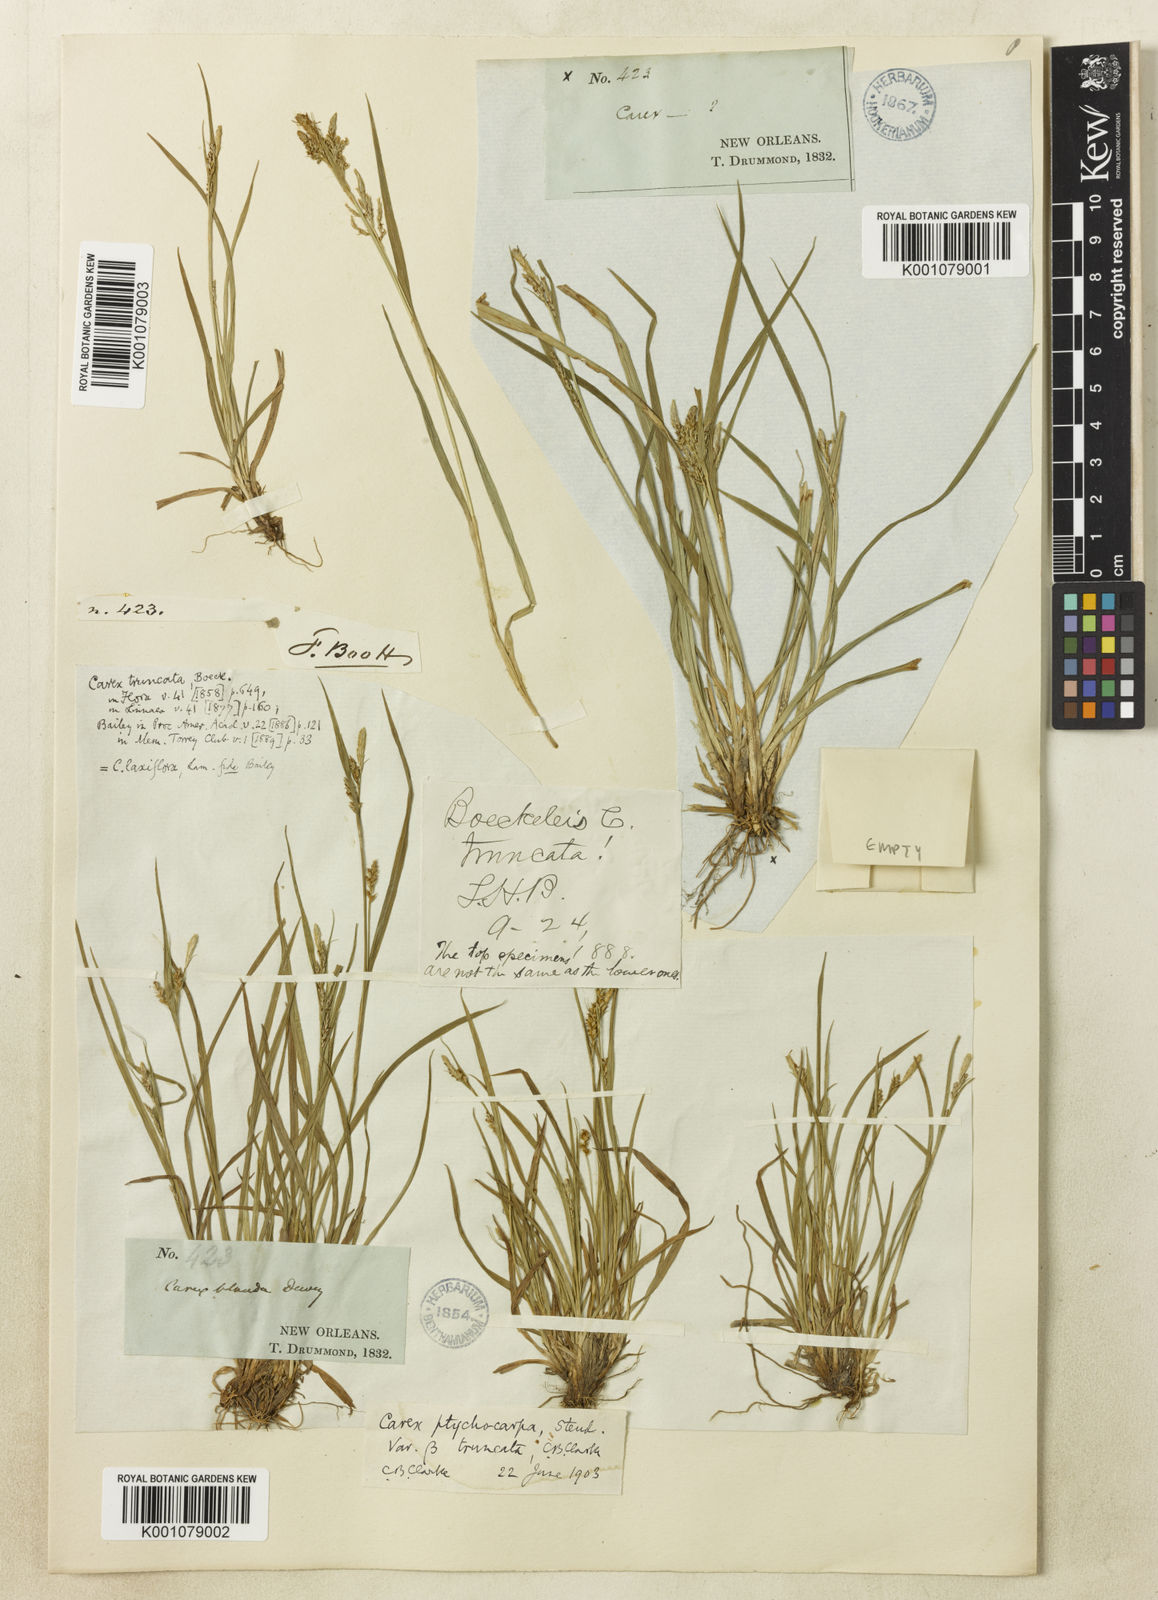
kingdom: Plantae
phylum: Tracheophyta
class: Liliopsida
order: Poales
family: Cyperaceae
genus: Carex
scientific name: Carex blanda
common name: Bland sedge
